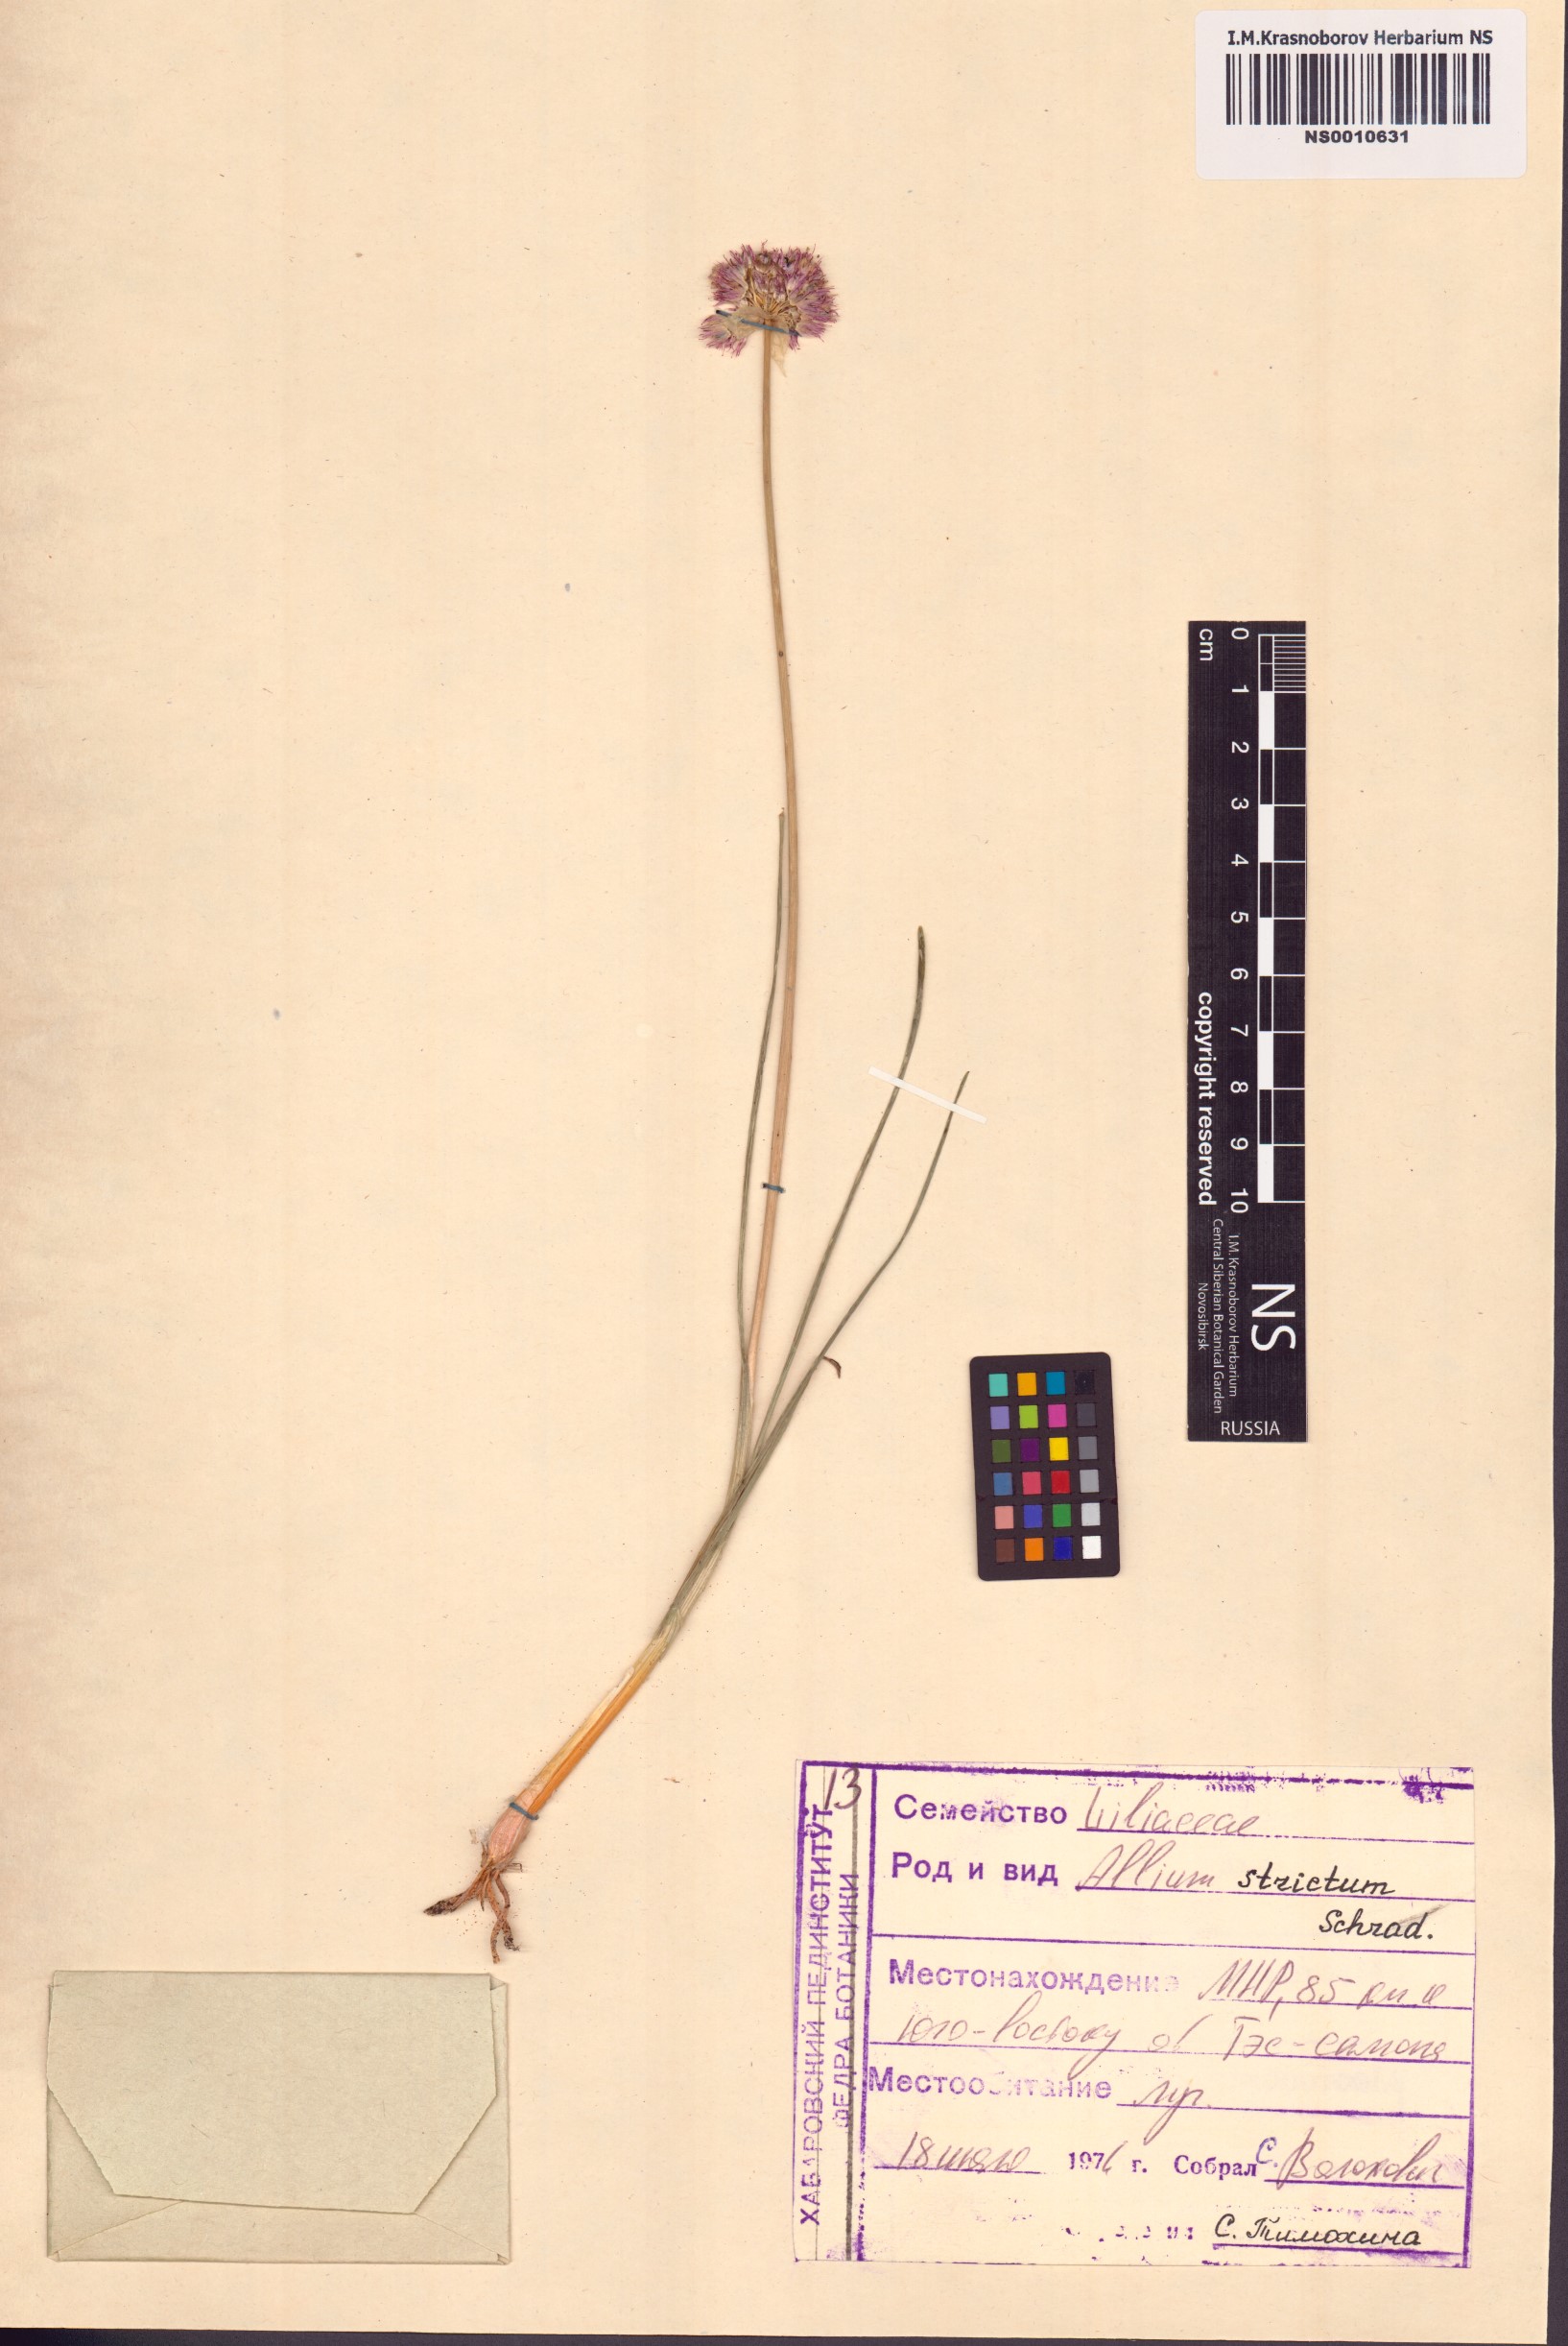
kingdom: Plantae
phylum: Tracheophyta
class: Liliopsida
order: Asparagales
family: Amaryllidaceae
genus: Allium
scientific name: Allium strictum
